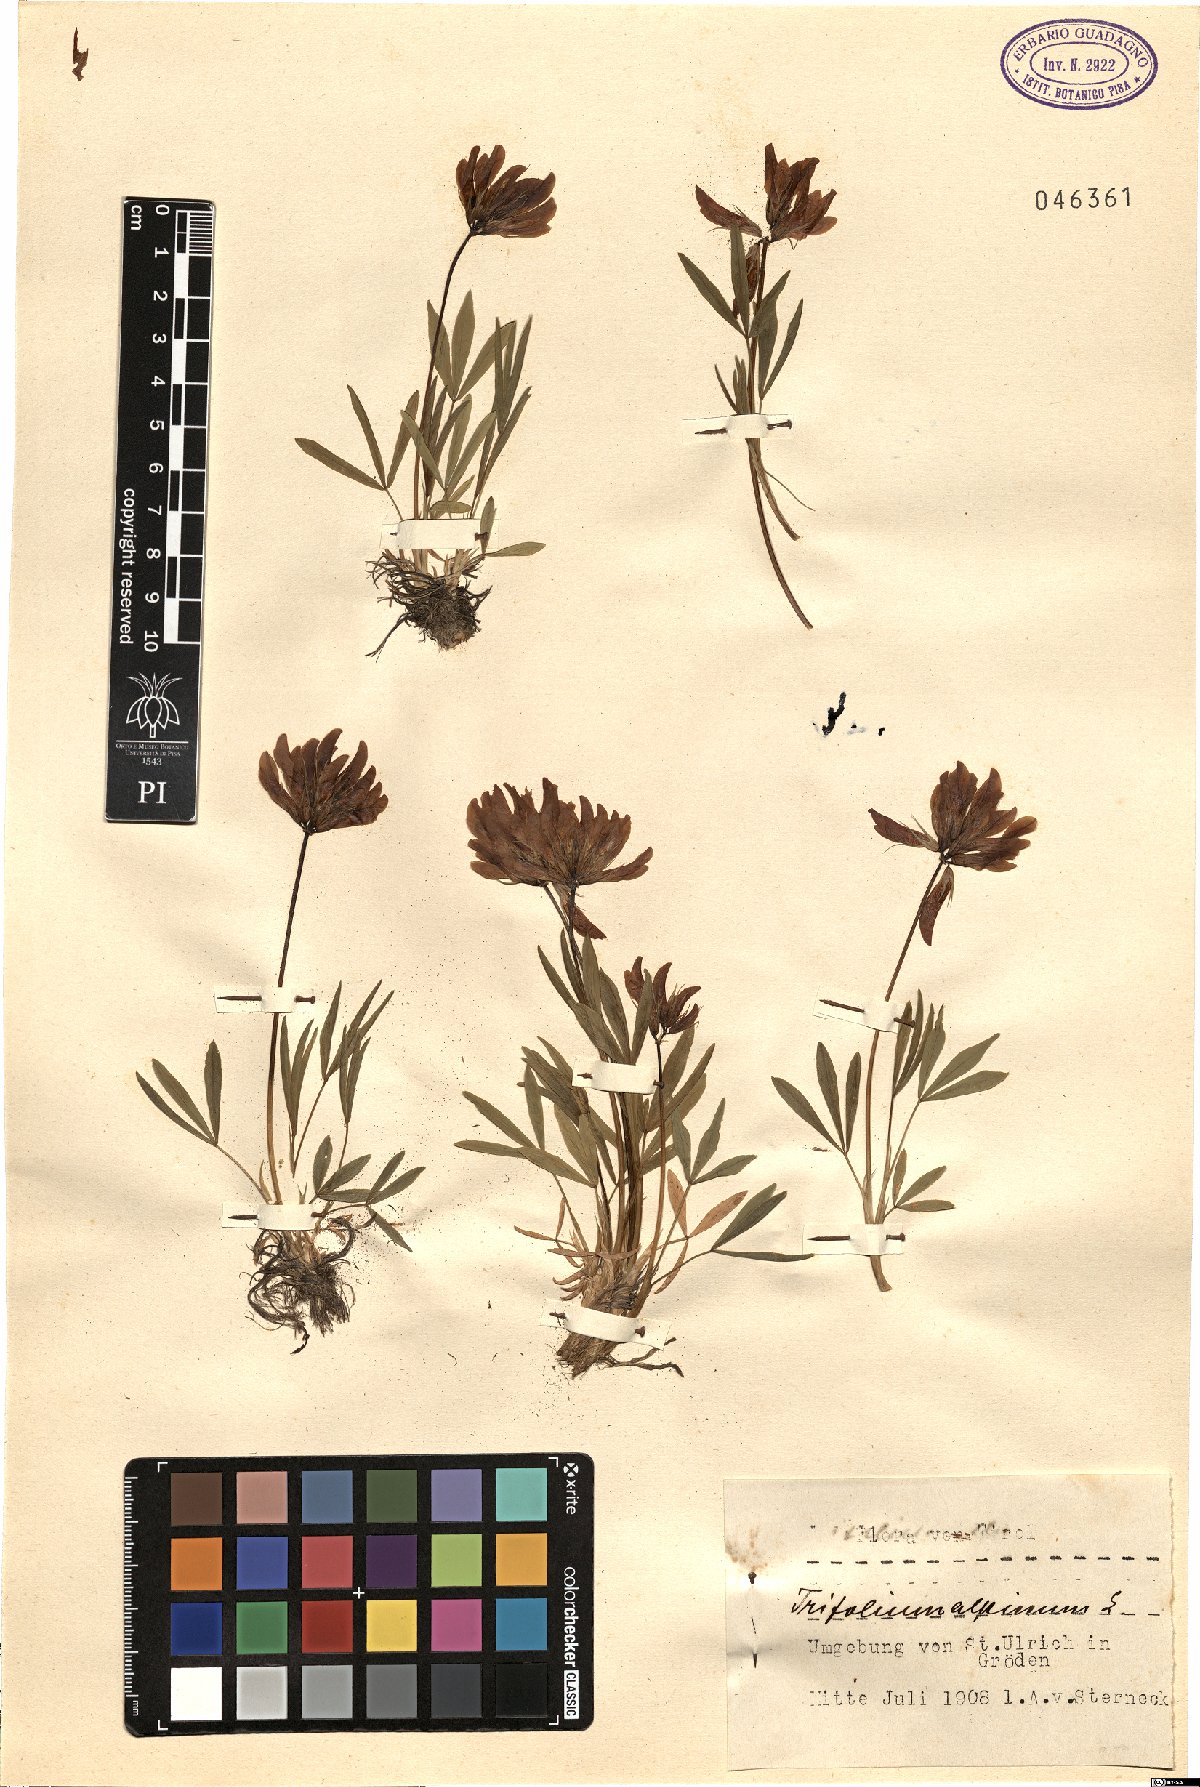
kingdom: Plantae
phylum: Tracheophyta
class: Magnoliopsida
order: Fabales
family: Fabaceae
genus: Trifolium
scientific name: Trifolium alpinum
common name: Alpine clover
